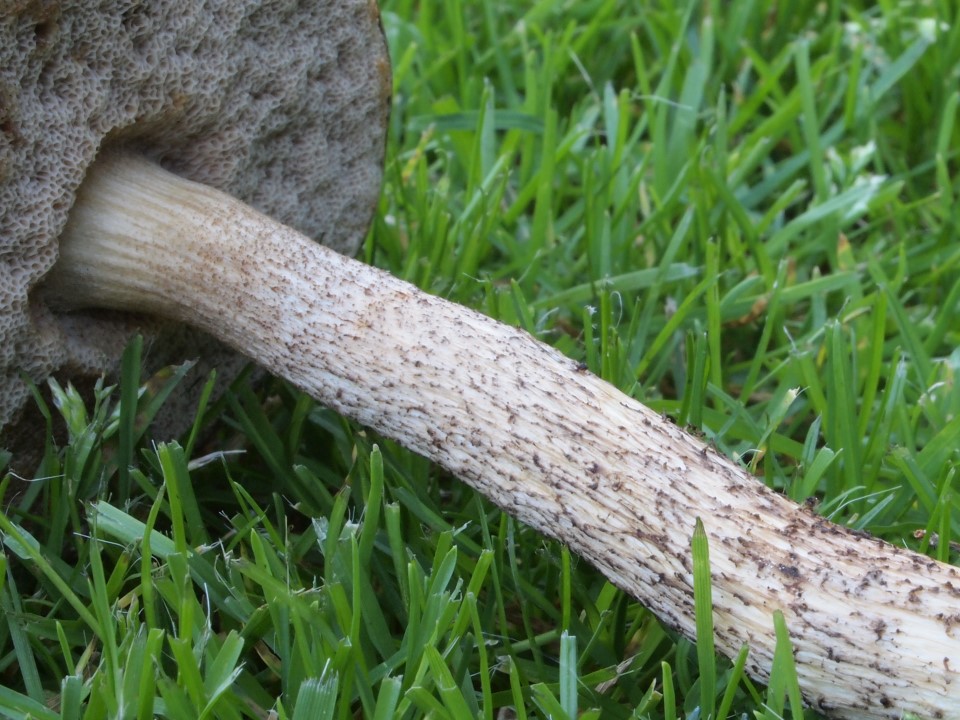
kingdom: Fungi
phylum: Basidiomycota
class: Agaricomycetes
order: Boletales
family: Boletaceae
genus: Leccinum
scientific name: Leccinum cyaneobasileucum
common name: almindelig skælrørhat
